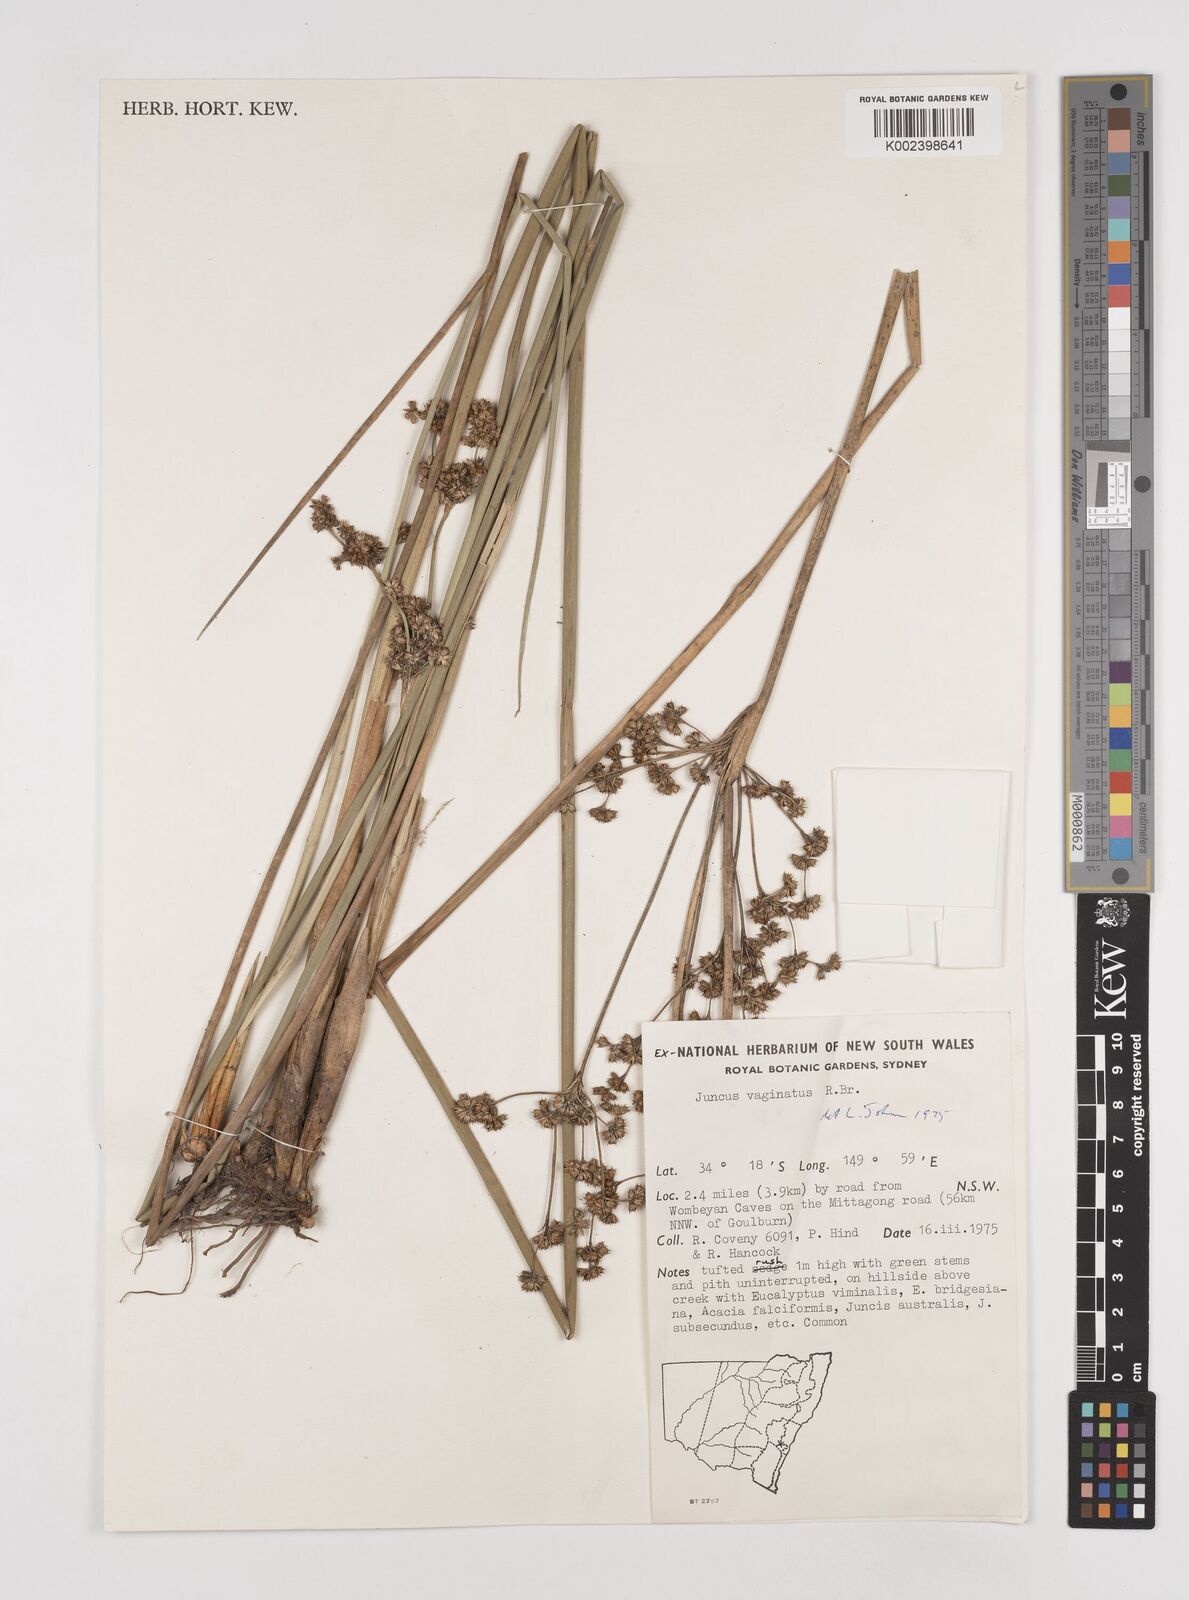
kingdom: Plantae
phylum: Tracheophyta
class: Liliopsida
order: Poales
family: Juncaceae
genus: Juncus
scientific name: Juncus vaginatus
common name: Clustered rush
